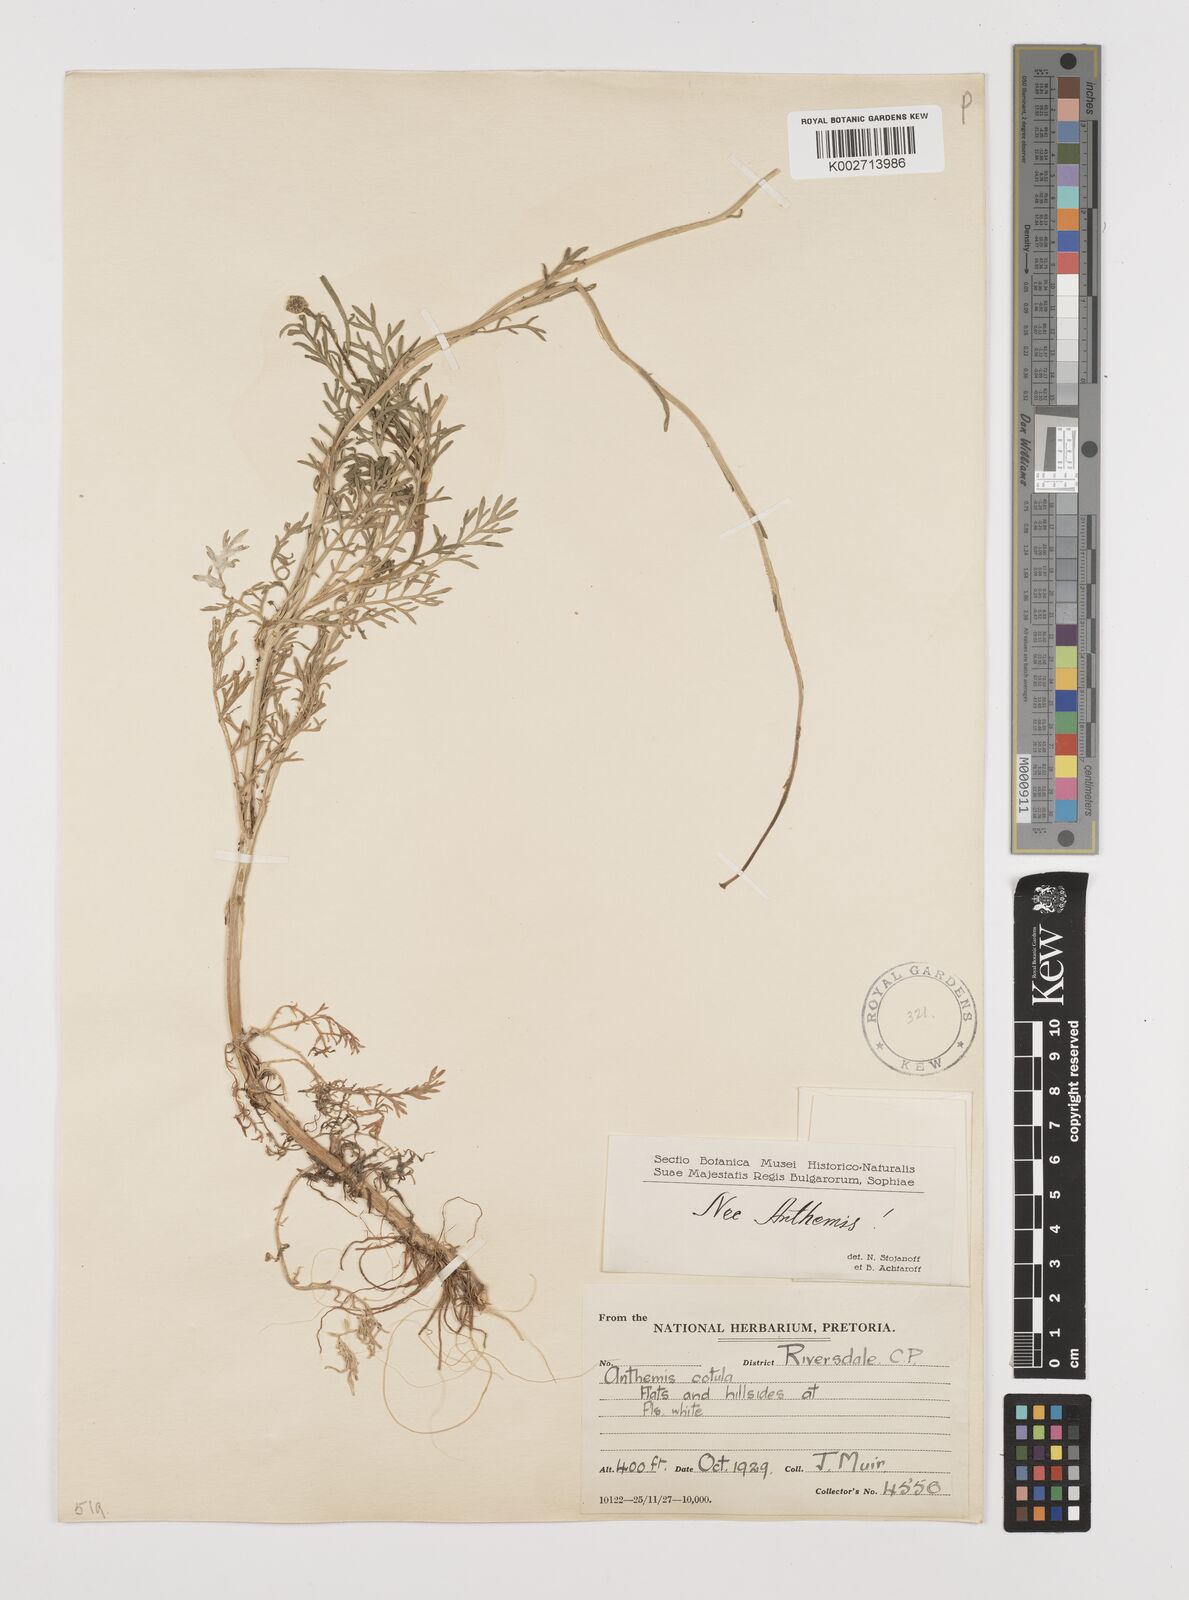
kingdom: Plantae
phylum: Tracheophyta
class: Magnoliopsida
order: Asterales
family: Asteraceae
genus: Anthemis
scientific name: Anthemis
